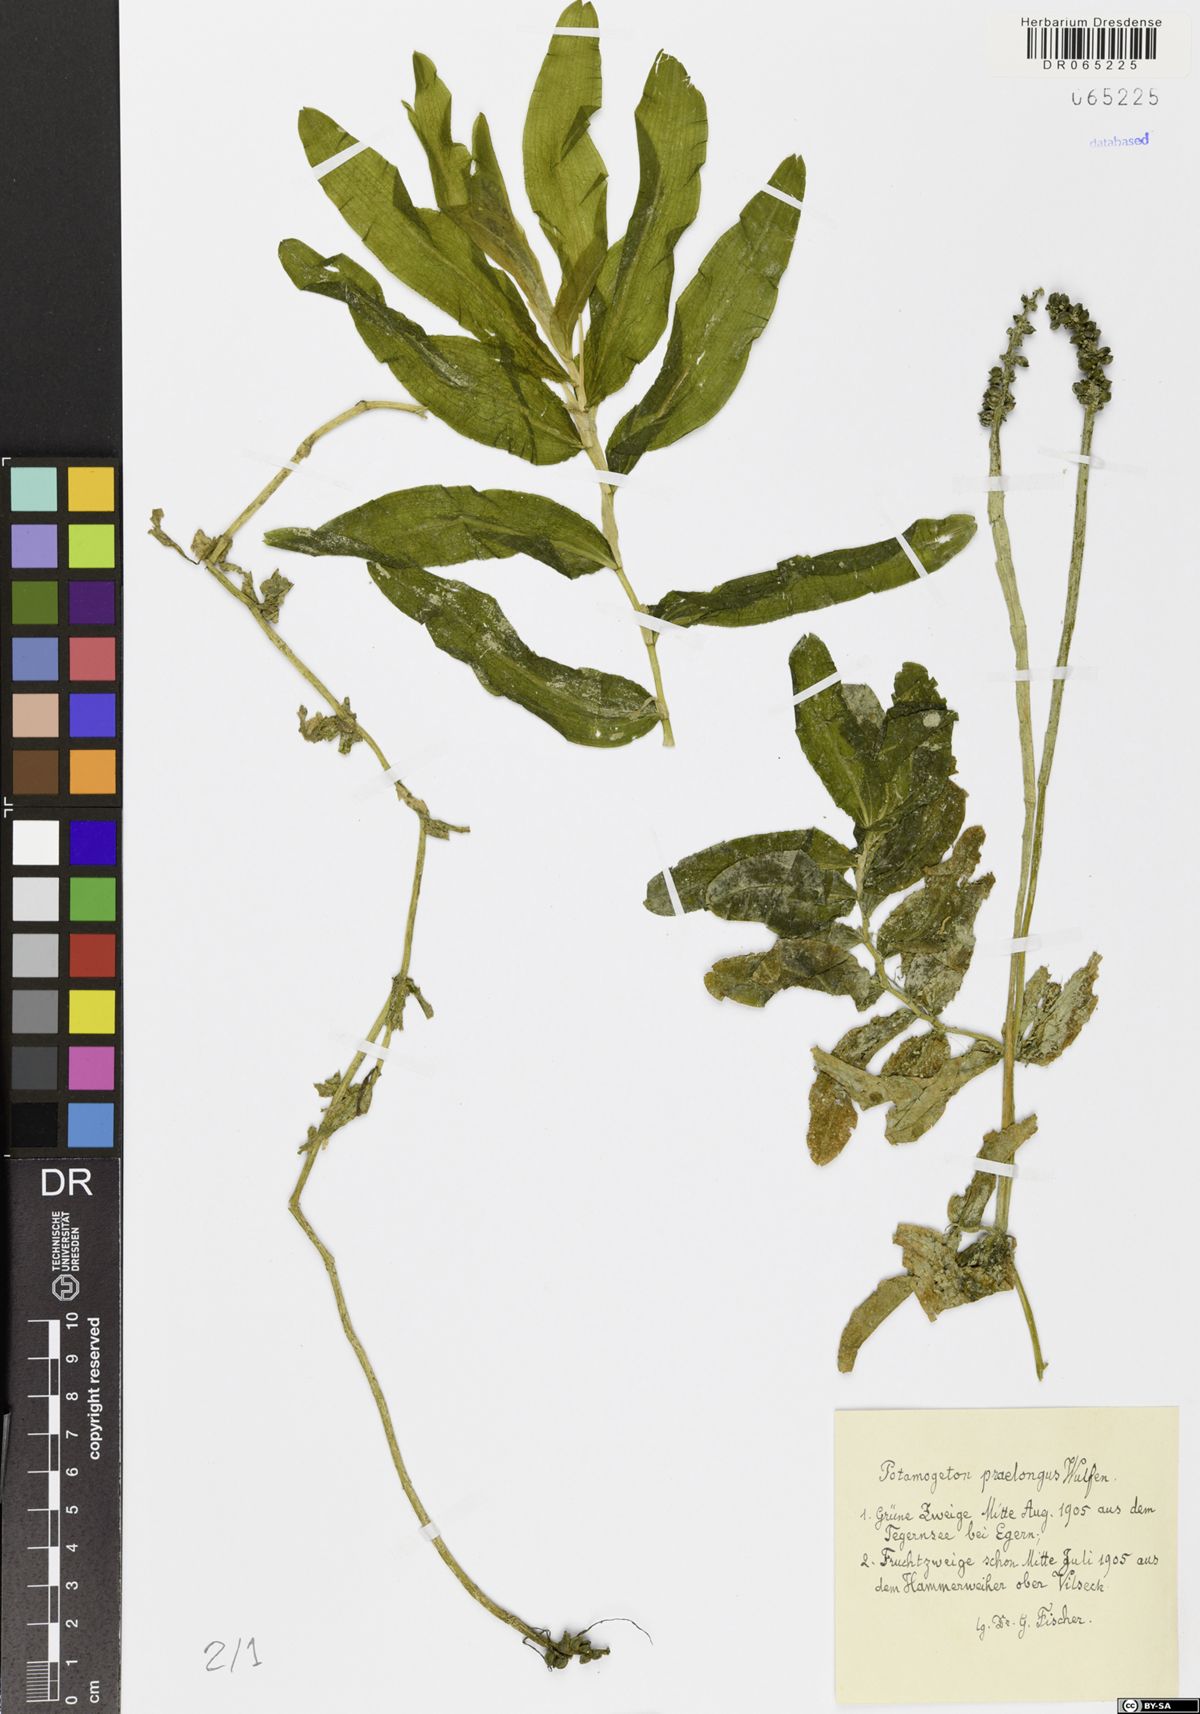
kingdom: Plantae
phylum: Tracheophyta
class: Liliopsida
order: Alismatales
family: Potamogetonaceae
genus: Potamogeton
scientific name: Potamogeton praelongus
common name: Long-stalked pondweed
